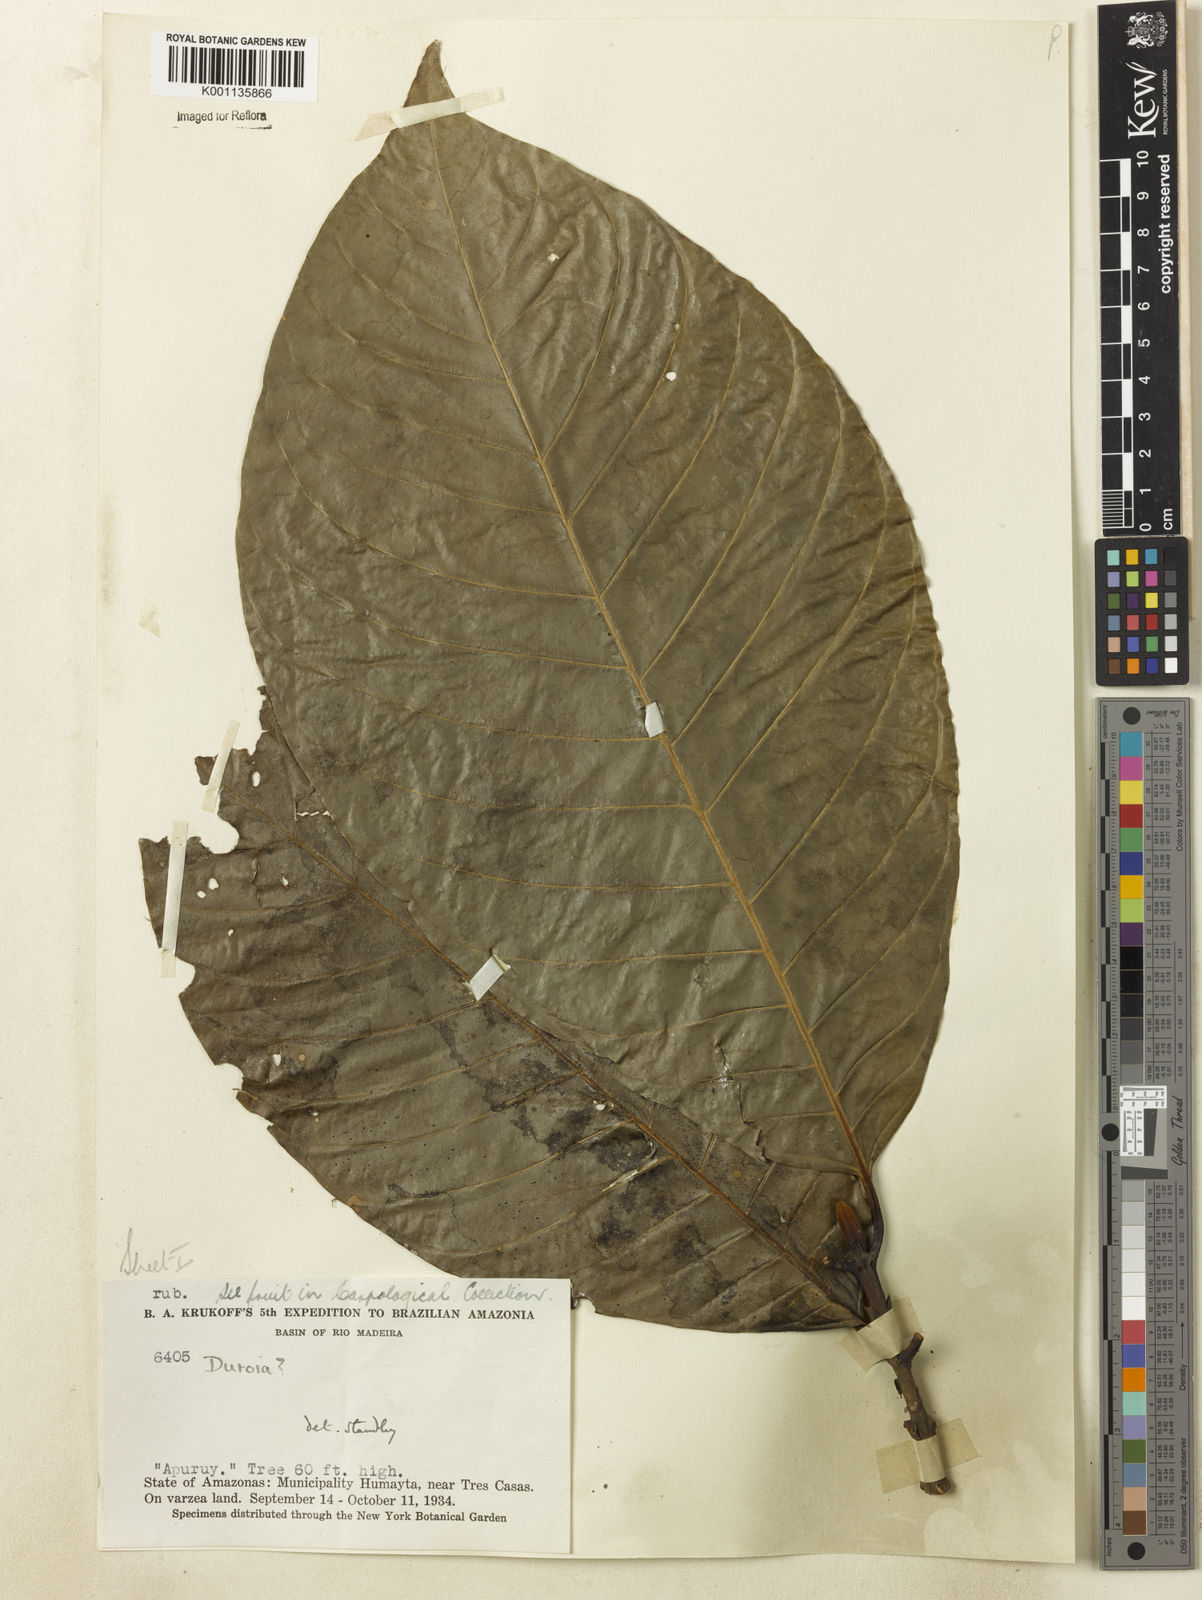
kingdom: Plantae
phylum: Tracheophyta
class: Magnoliopsida
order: Gentianales
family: Rubiaceae
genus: Duroia
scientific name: Duroia
